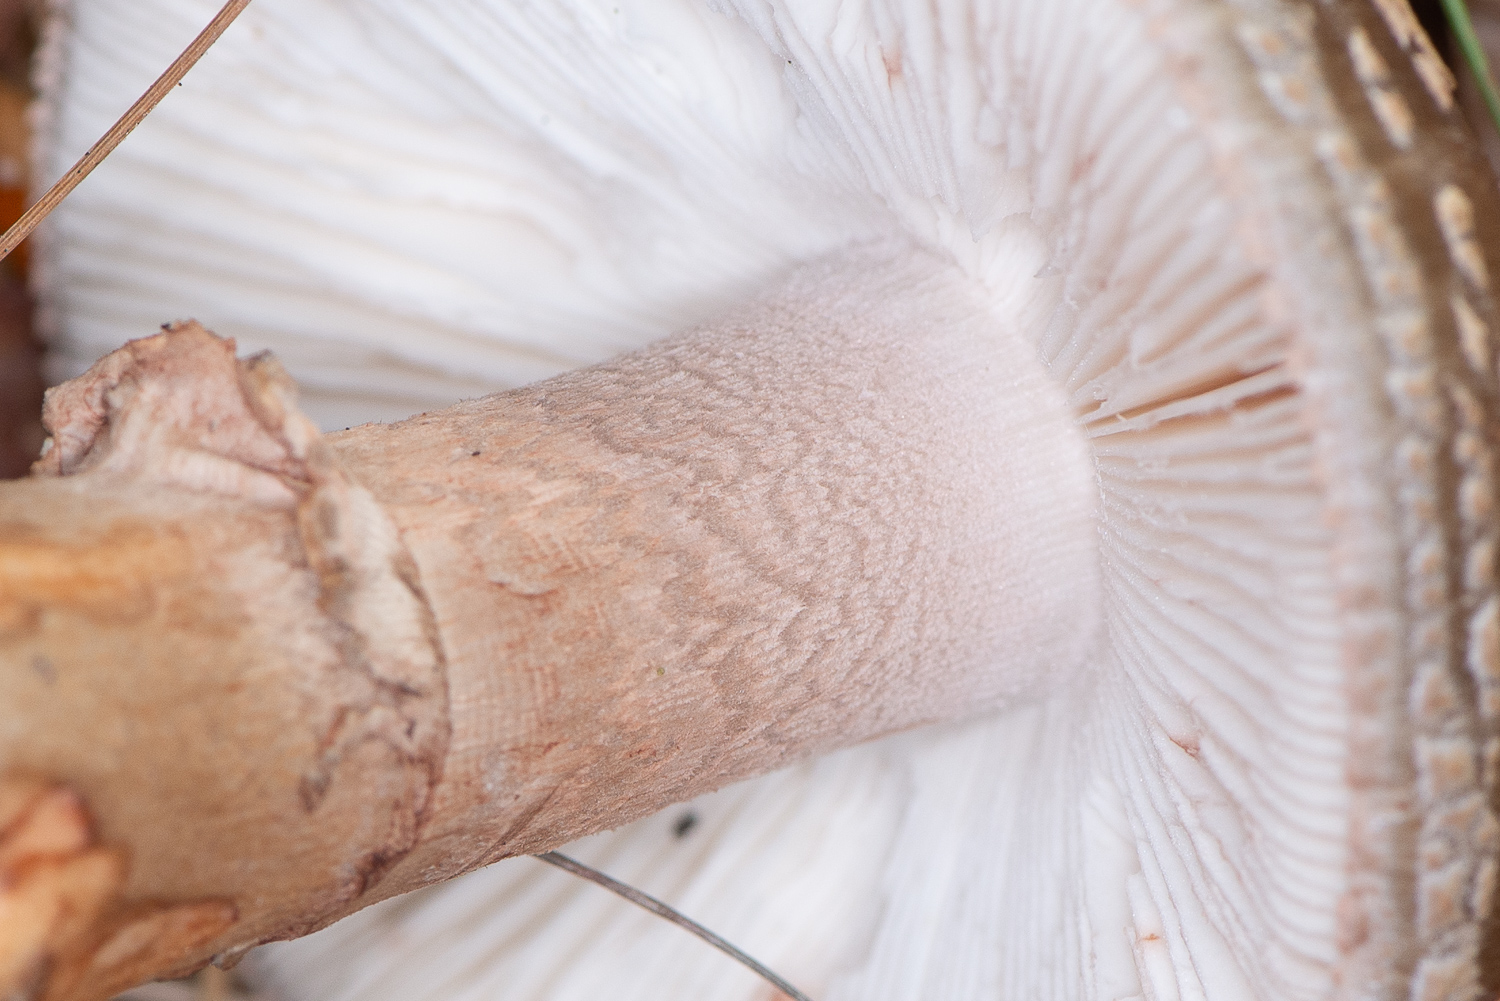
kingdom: Fungi
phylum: Basidiomycota
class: Agaricomycetes
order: Agaricales
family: Amanitaceae
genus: Amanita
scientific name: Amanita rubescens
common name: rødmende fluesvamp
